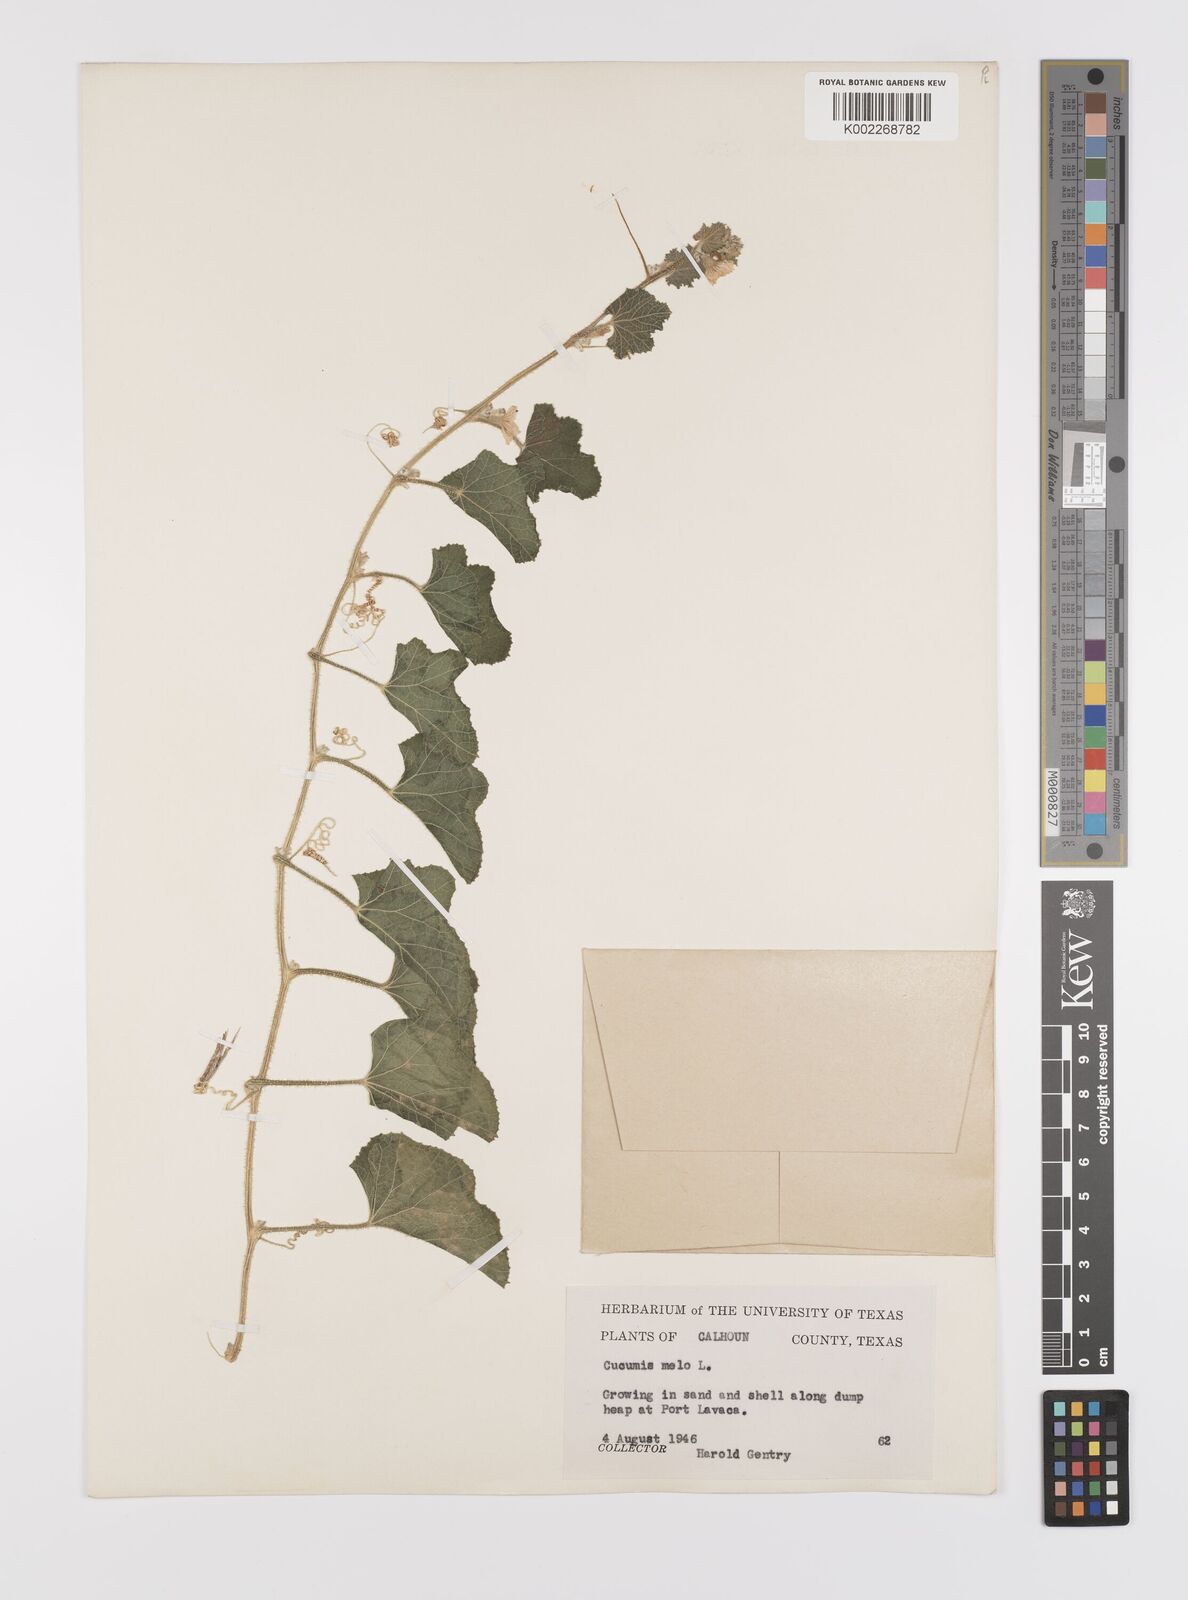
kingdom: Plantae
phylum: Tracheophyta
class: Magnoliopsida
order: Cucurbitales
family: Cucurbitaceae
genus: Cucumis
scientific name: Cucumis melo
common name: Melon
